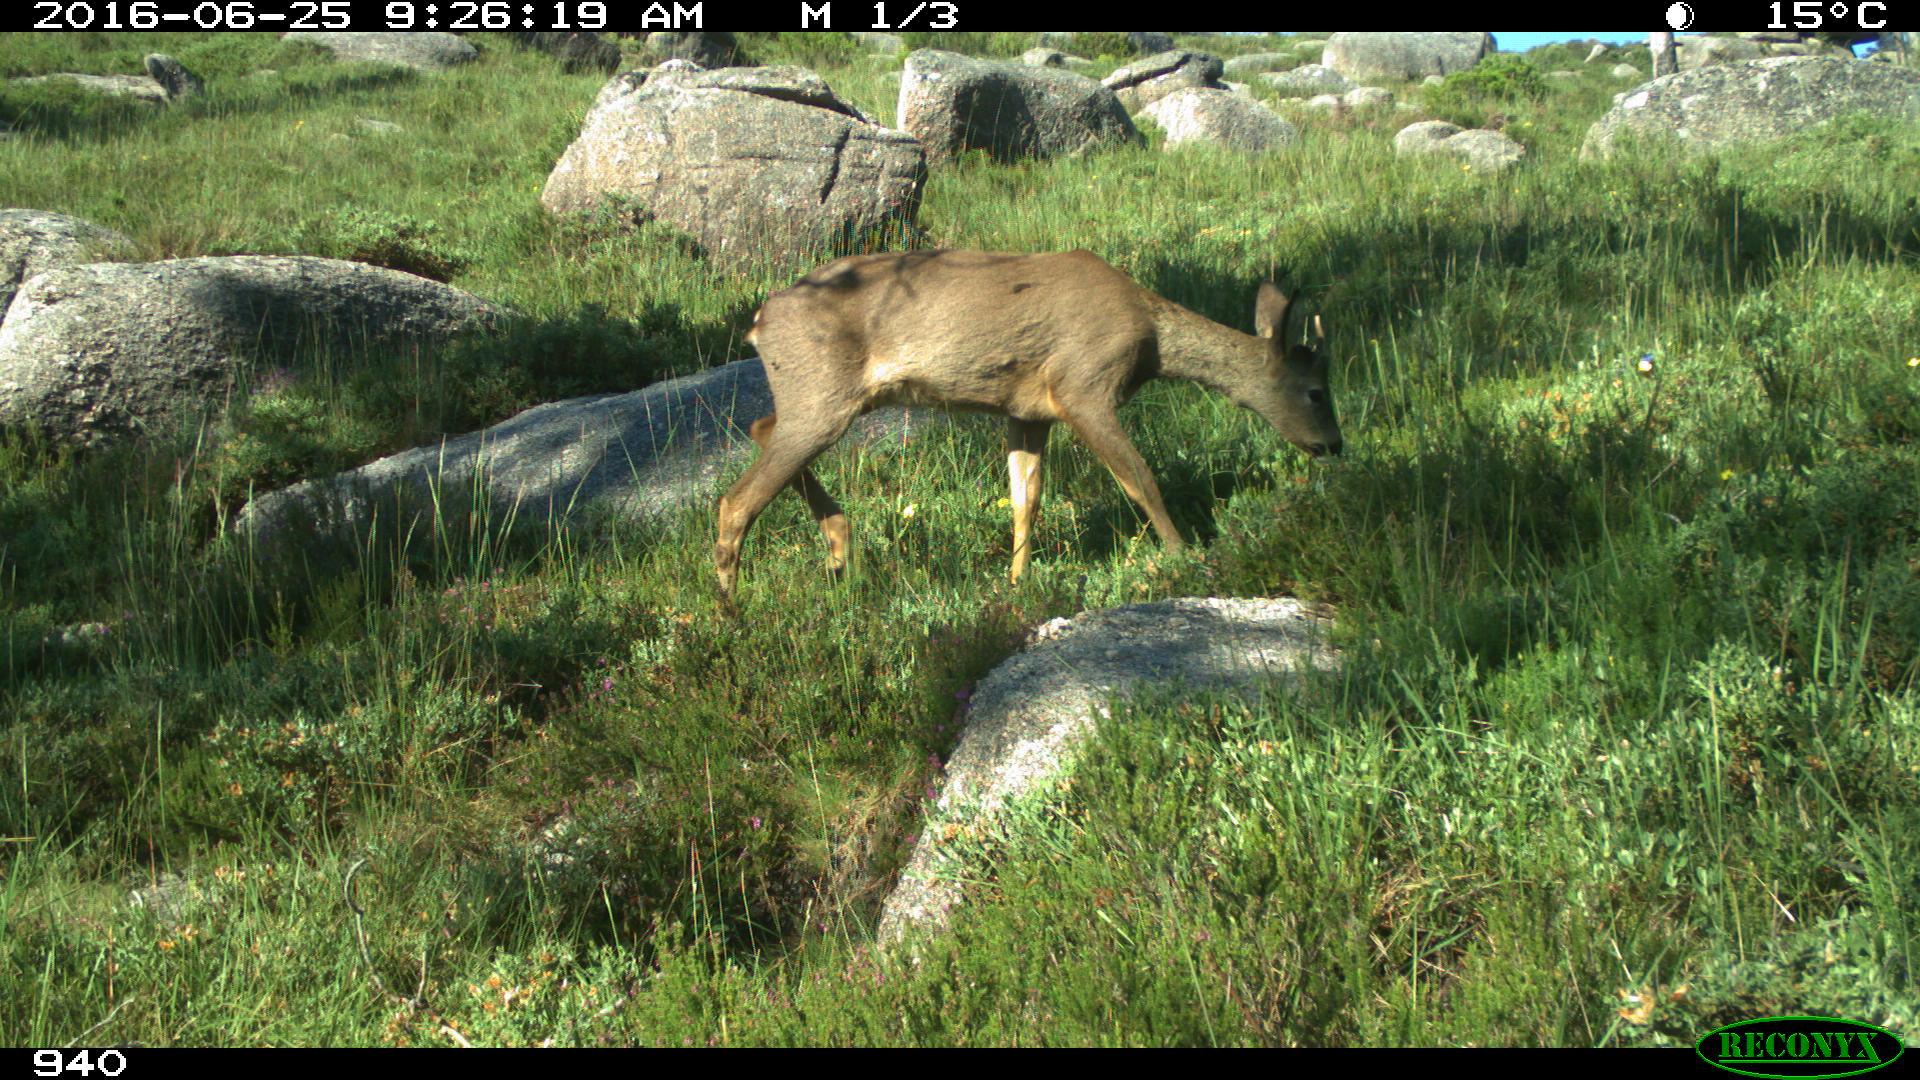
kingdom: Animalia
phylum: Chordata
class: Mammalia
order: Artiodactyla
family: Cervidae
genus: Capreolus
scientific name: Capreolus capreolus
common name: Western roe deer
